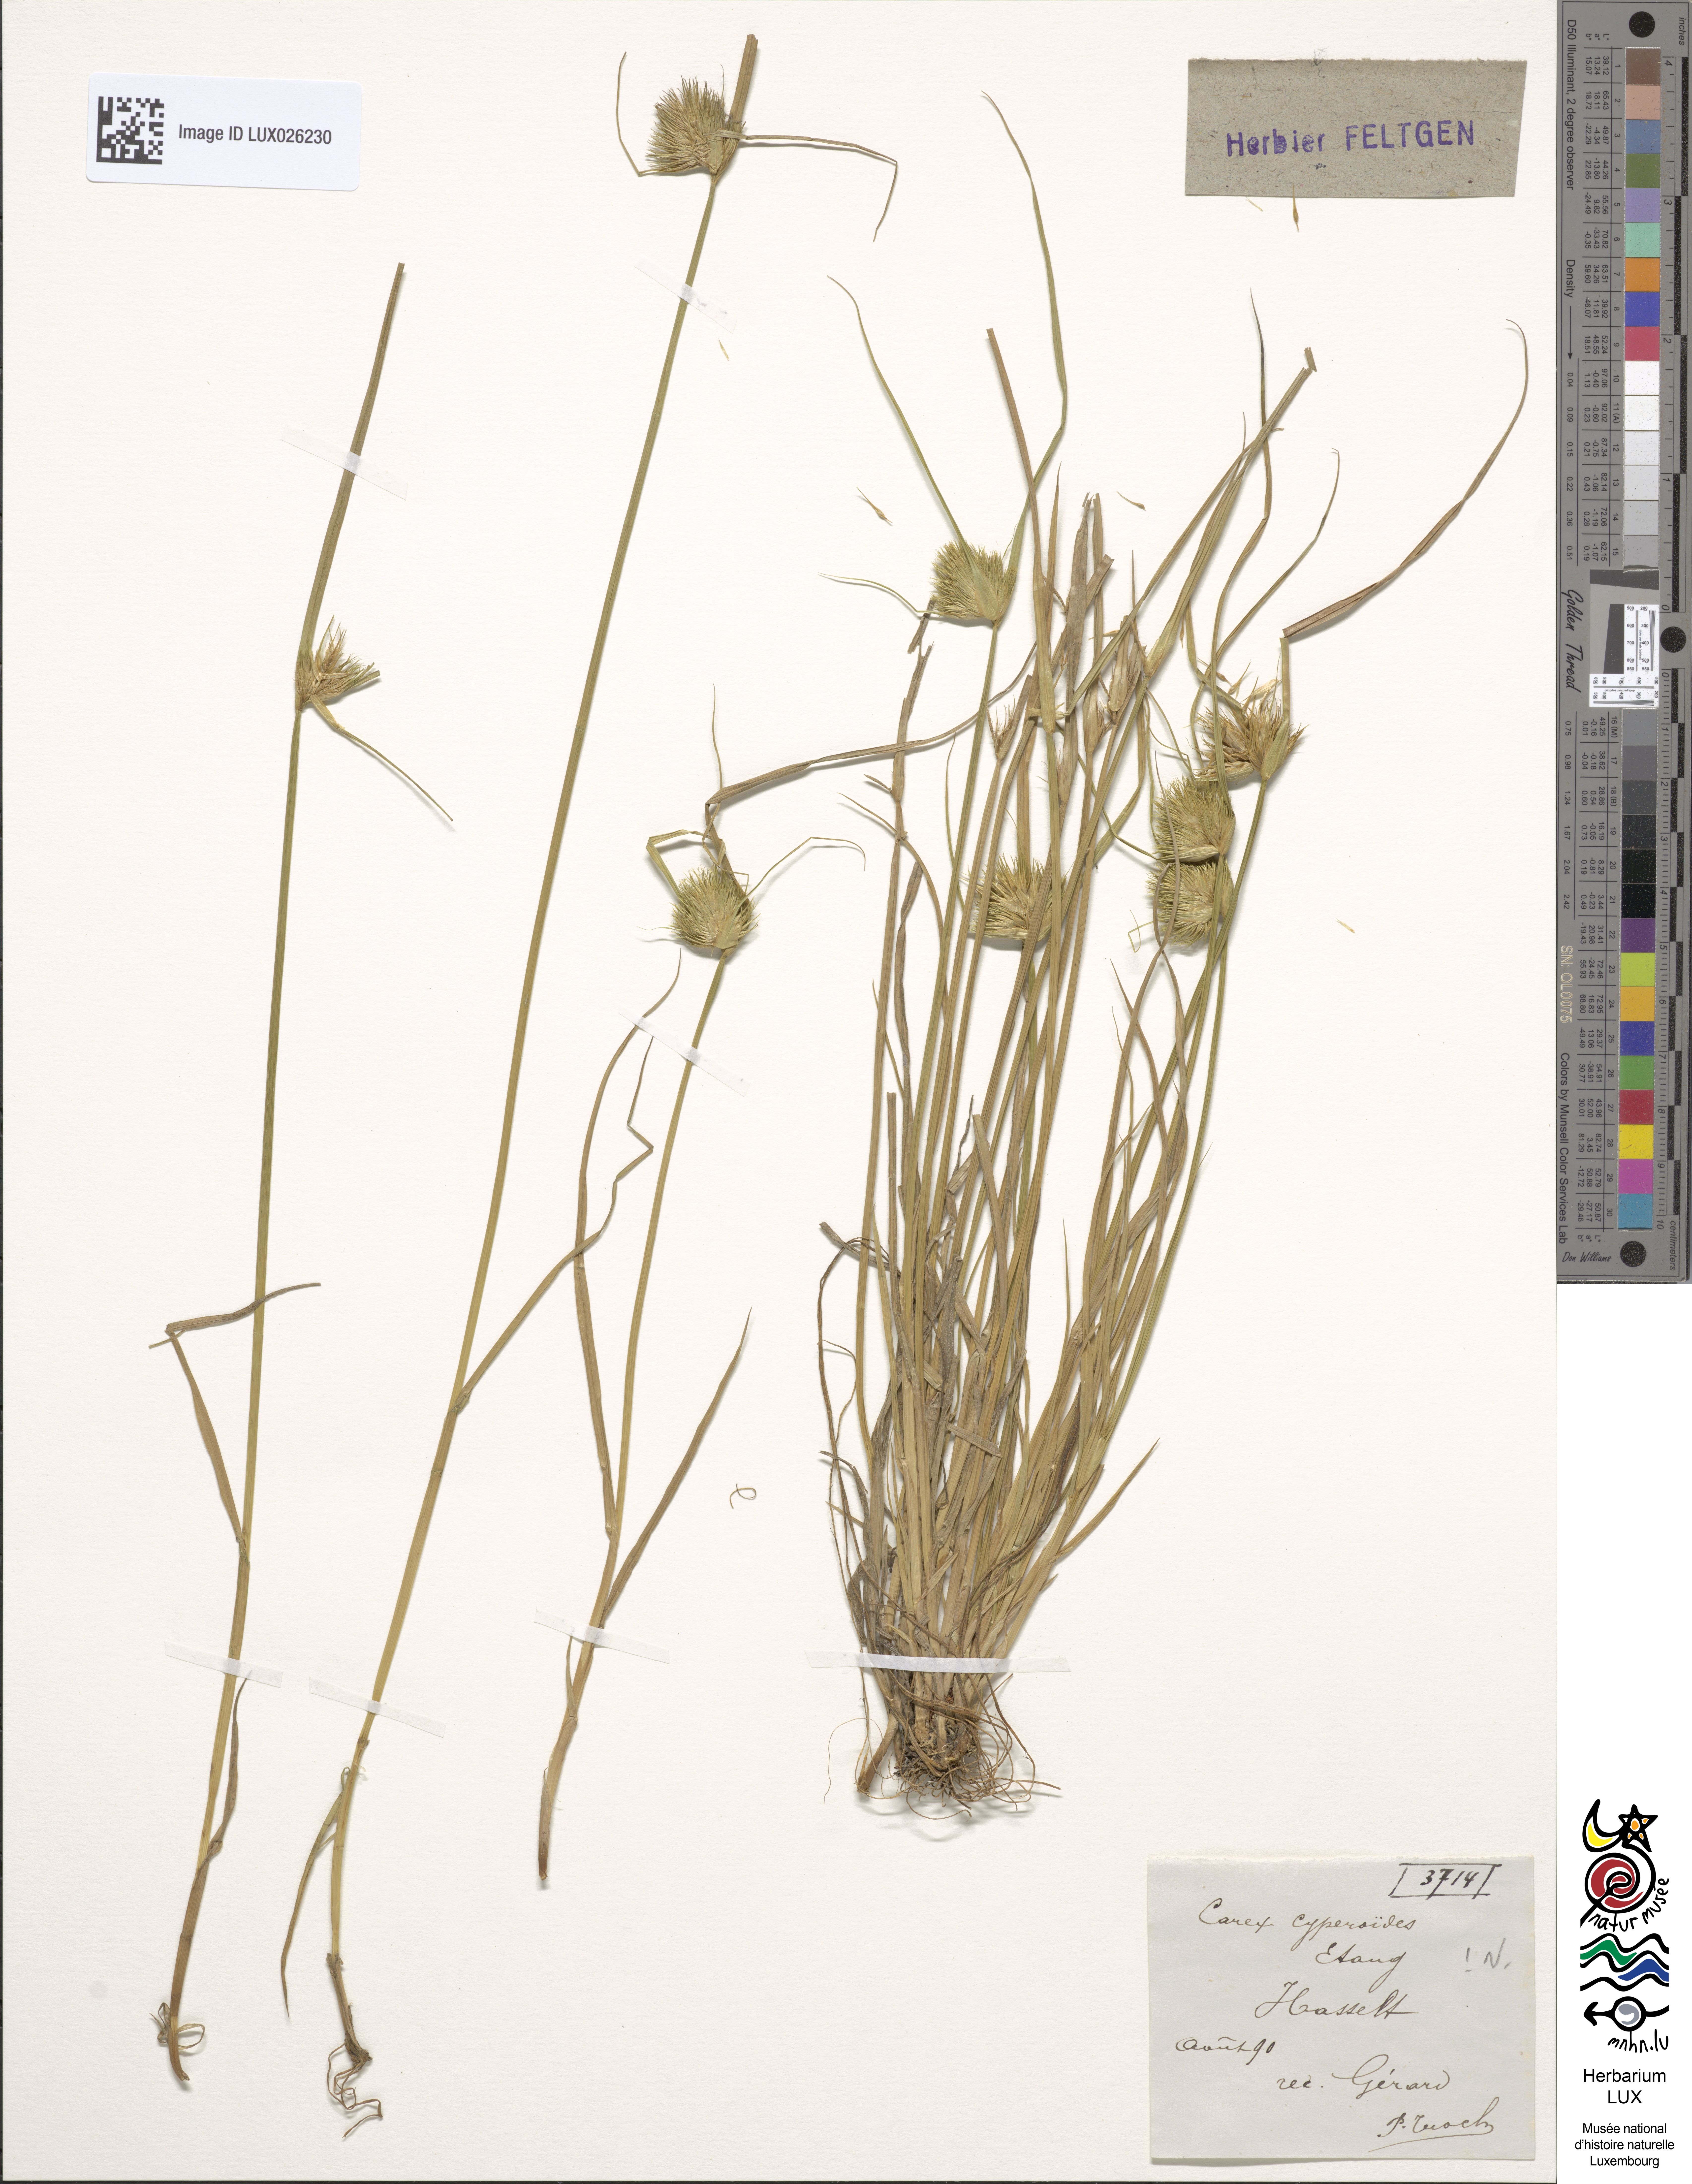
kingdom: Plantae
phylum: Tracheophyta
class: Liliopsida
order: Poales
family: Cyperaceae
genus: Carex
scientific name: Carex bohemica
